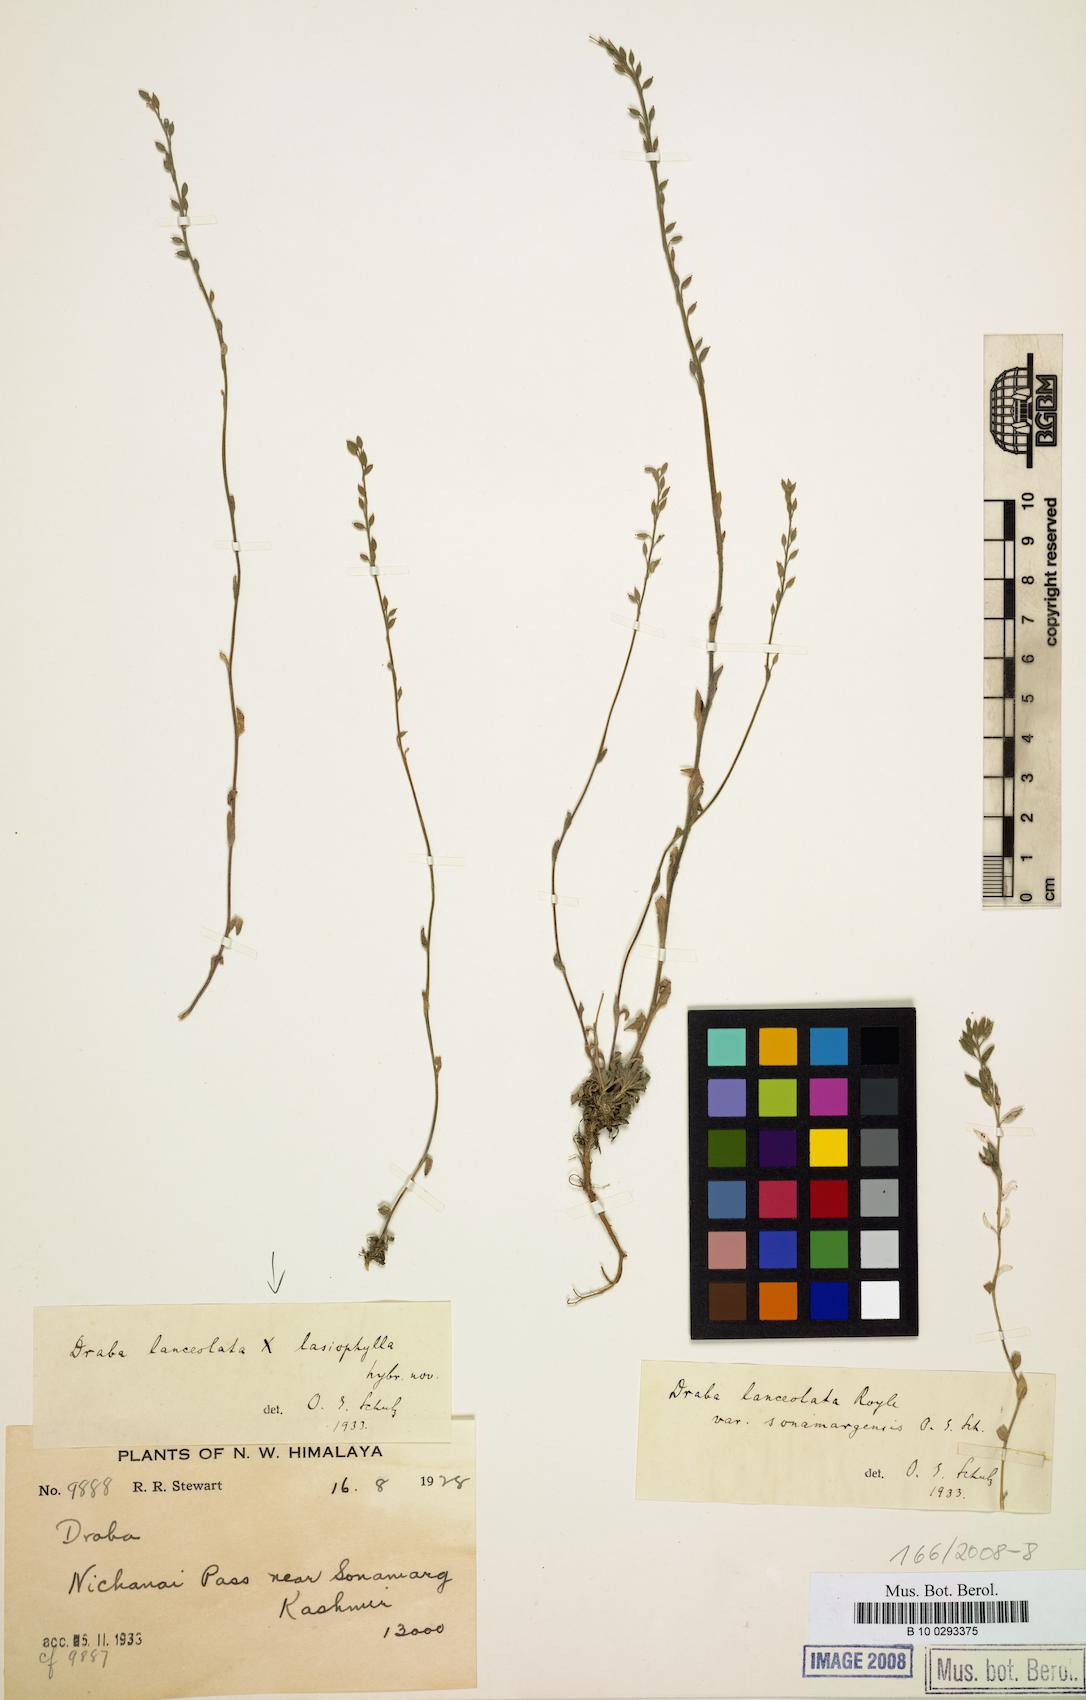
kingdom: Plantae
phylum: Tracheophyta
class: Magnoliopsida
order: Brassicales
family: Brassicaceae
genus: Draba
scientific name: Draba lanceolata
